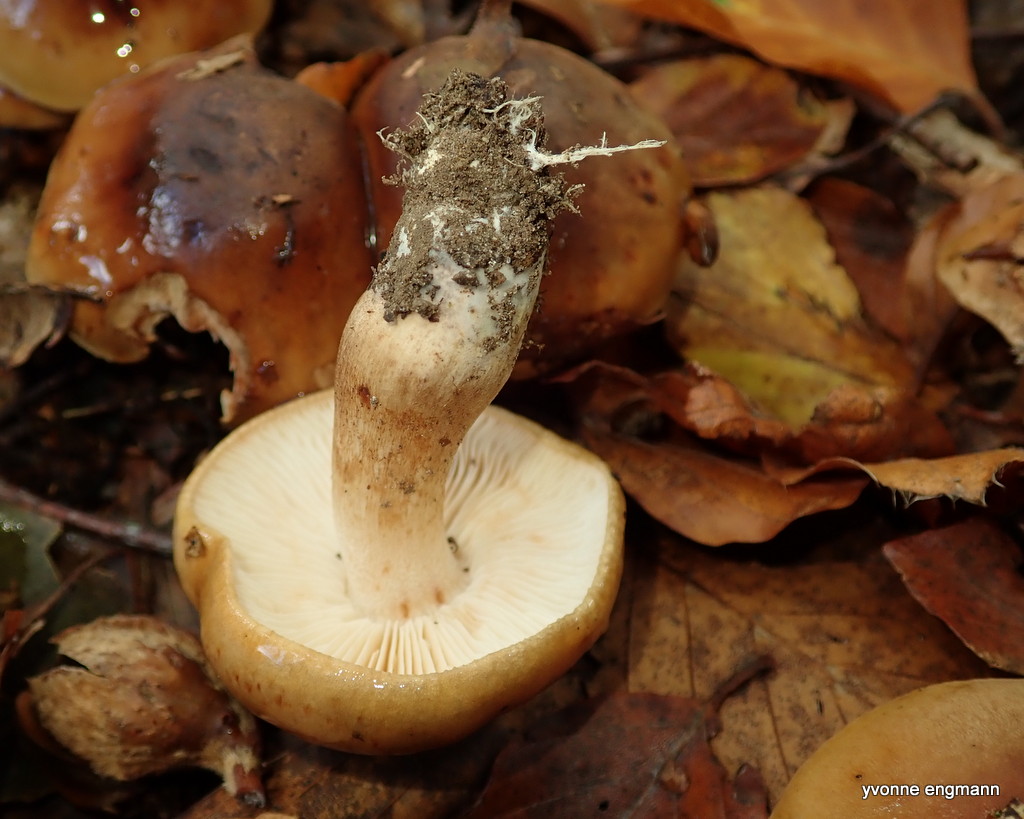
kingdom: Fungi
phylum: Basidiomycota
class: Agaricomycetes
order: Agaricales
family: Tricholomataceae
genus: Tricholoma
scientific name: Tricholoma ustale
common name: sveden ridderhat
